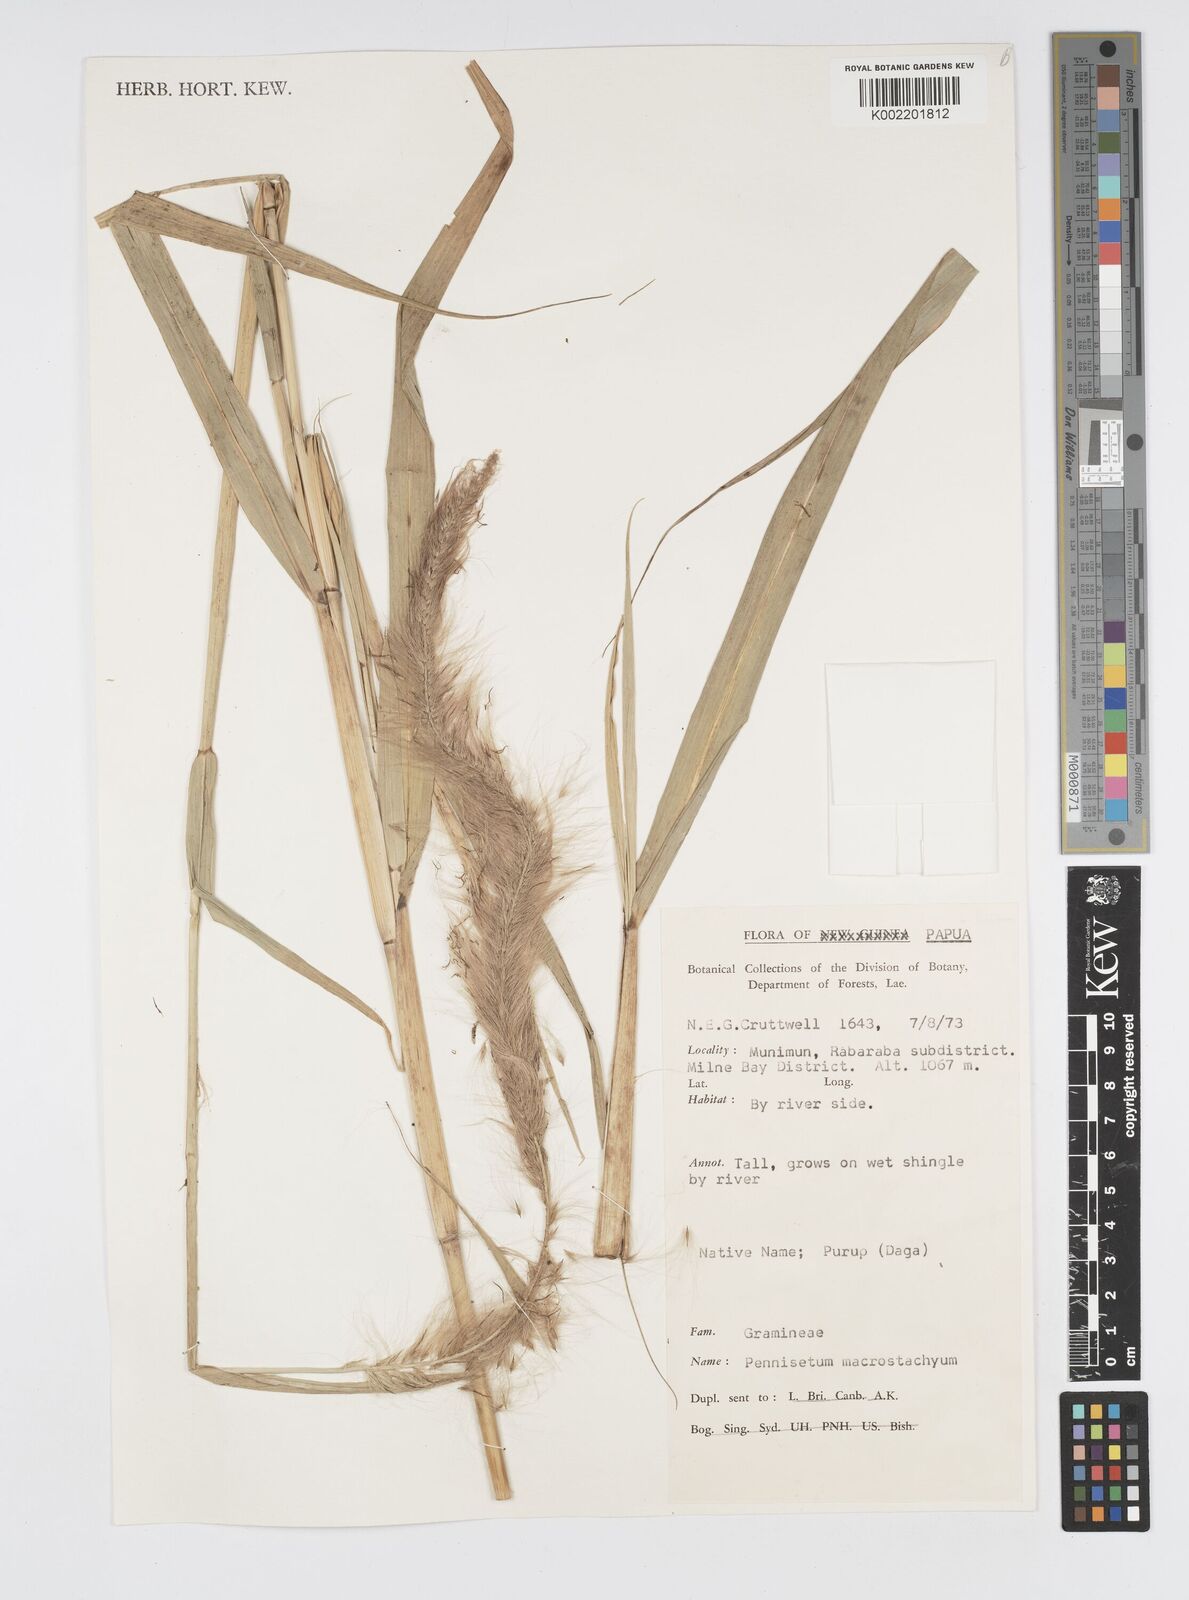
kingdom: Plantae
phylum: Tracheophyta
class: Liliopsida
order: Poales
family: Poaceae
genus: Cenchrus
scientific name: Cenchrus purpureus
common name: Elephant grass
